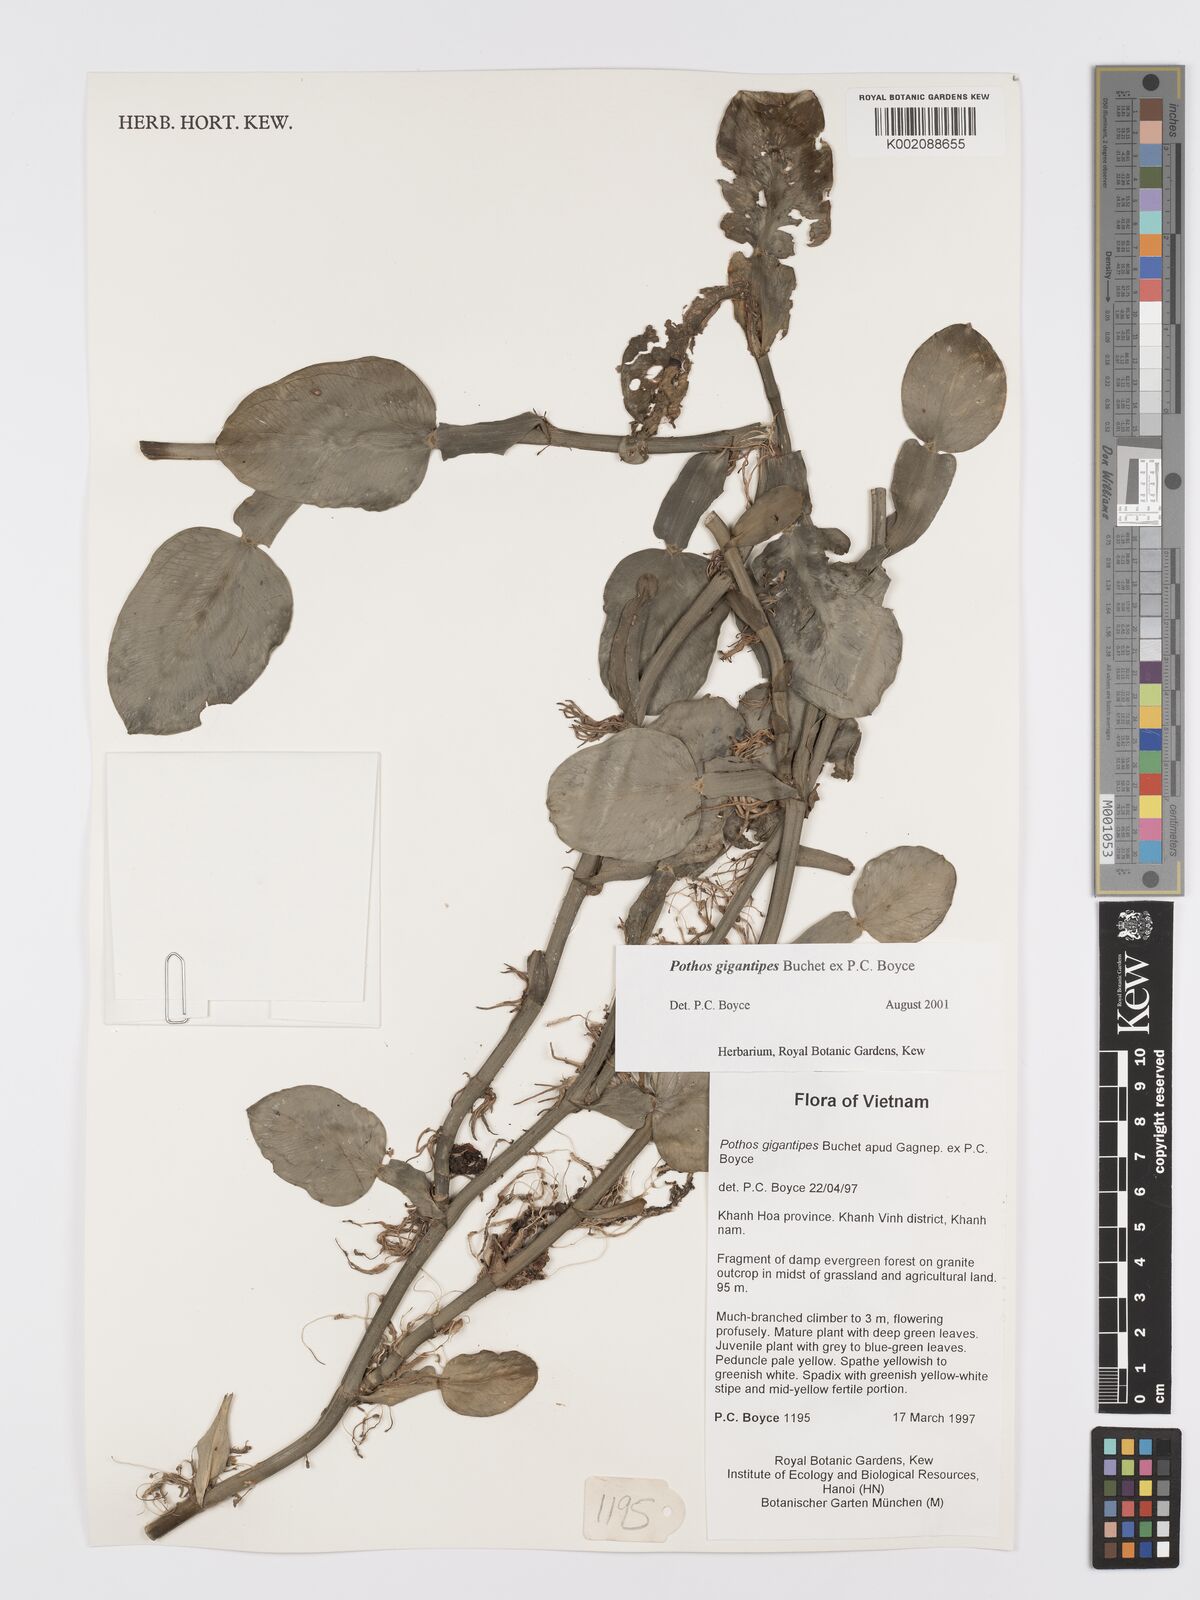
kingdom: Plantae
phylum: Tracheophyta
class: Liliopsida
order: Alismatales
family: Araceae
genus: Pothos
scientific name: Pothos gigantipes
